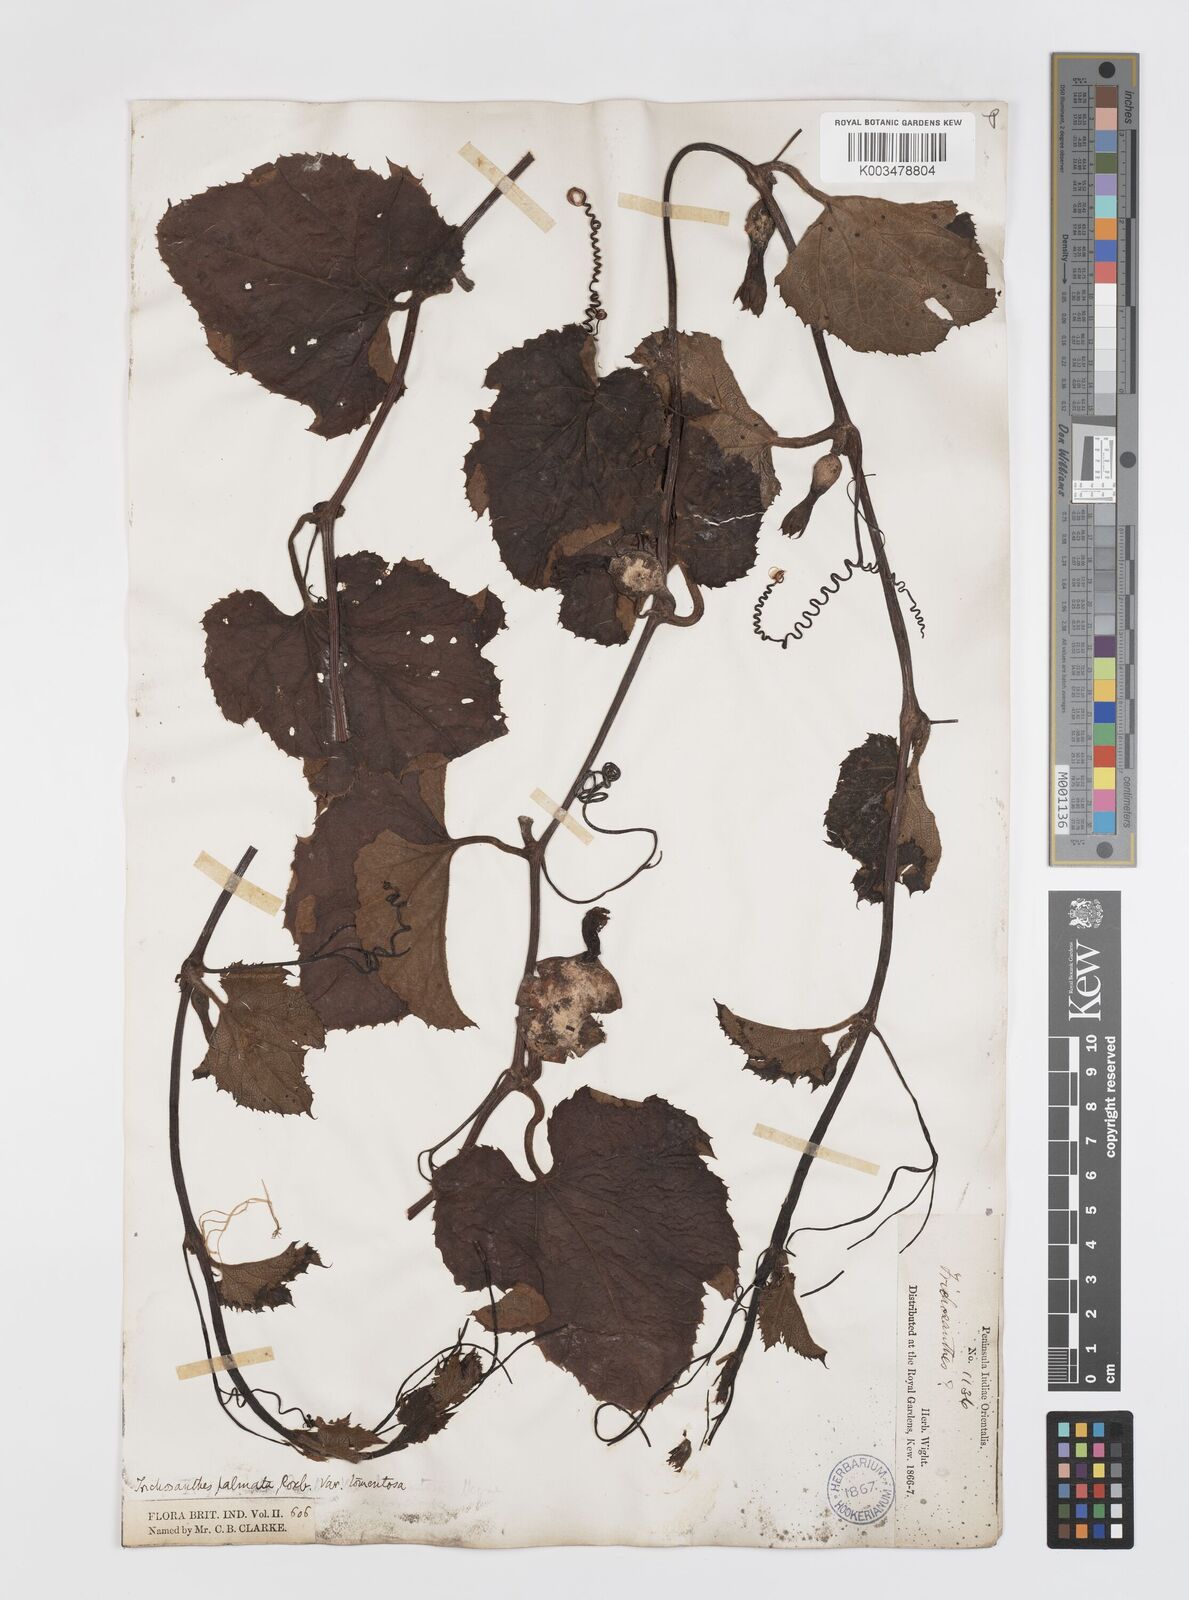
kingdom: Plantae
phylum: Tracheophyta
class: Magnoliopsida
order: Cucurbitales
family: Cucurbitaceae
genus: Trichosanthes
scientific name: Trichosanthes anaimalaiensis
